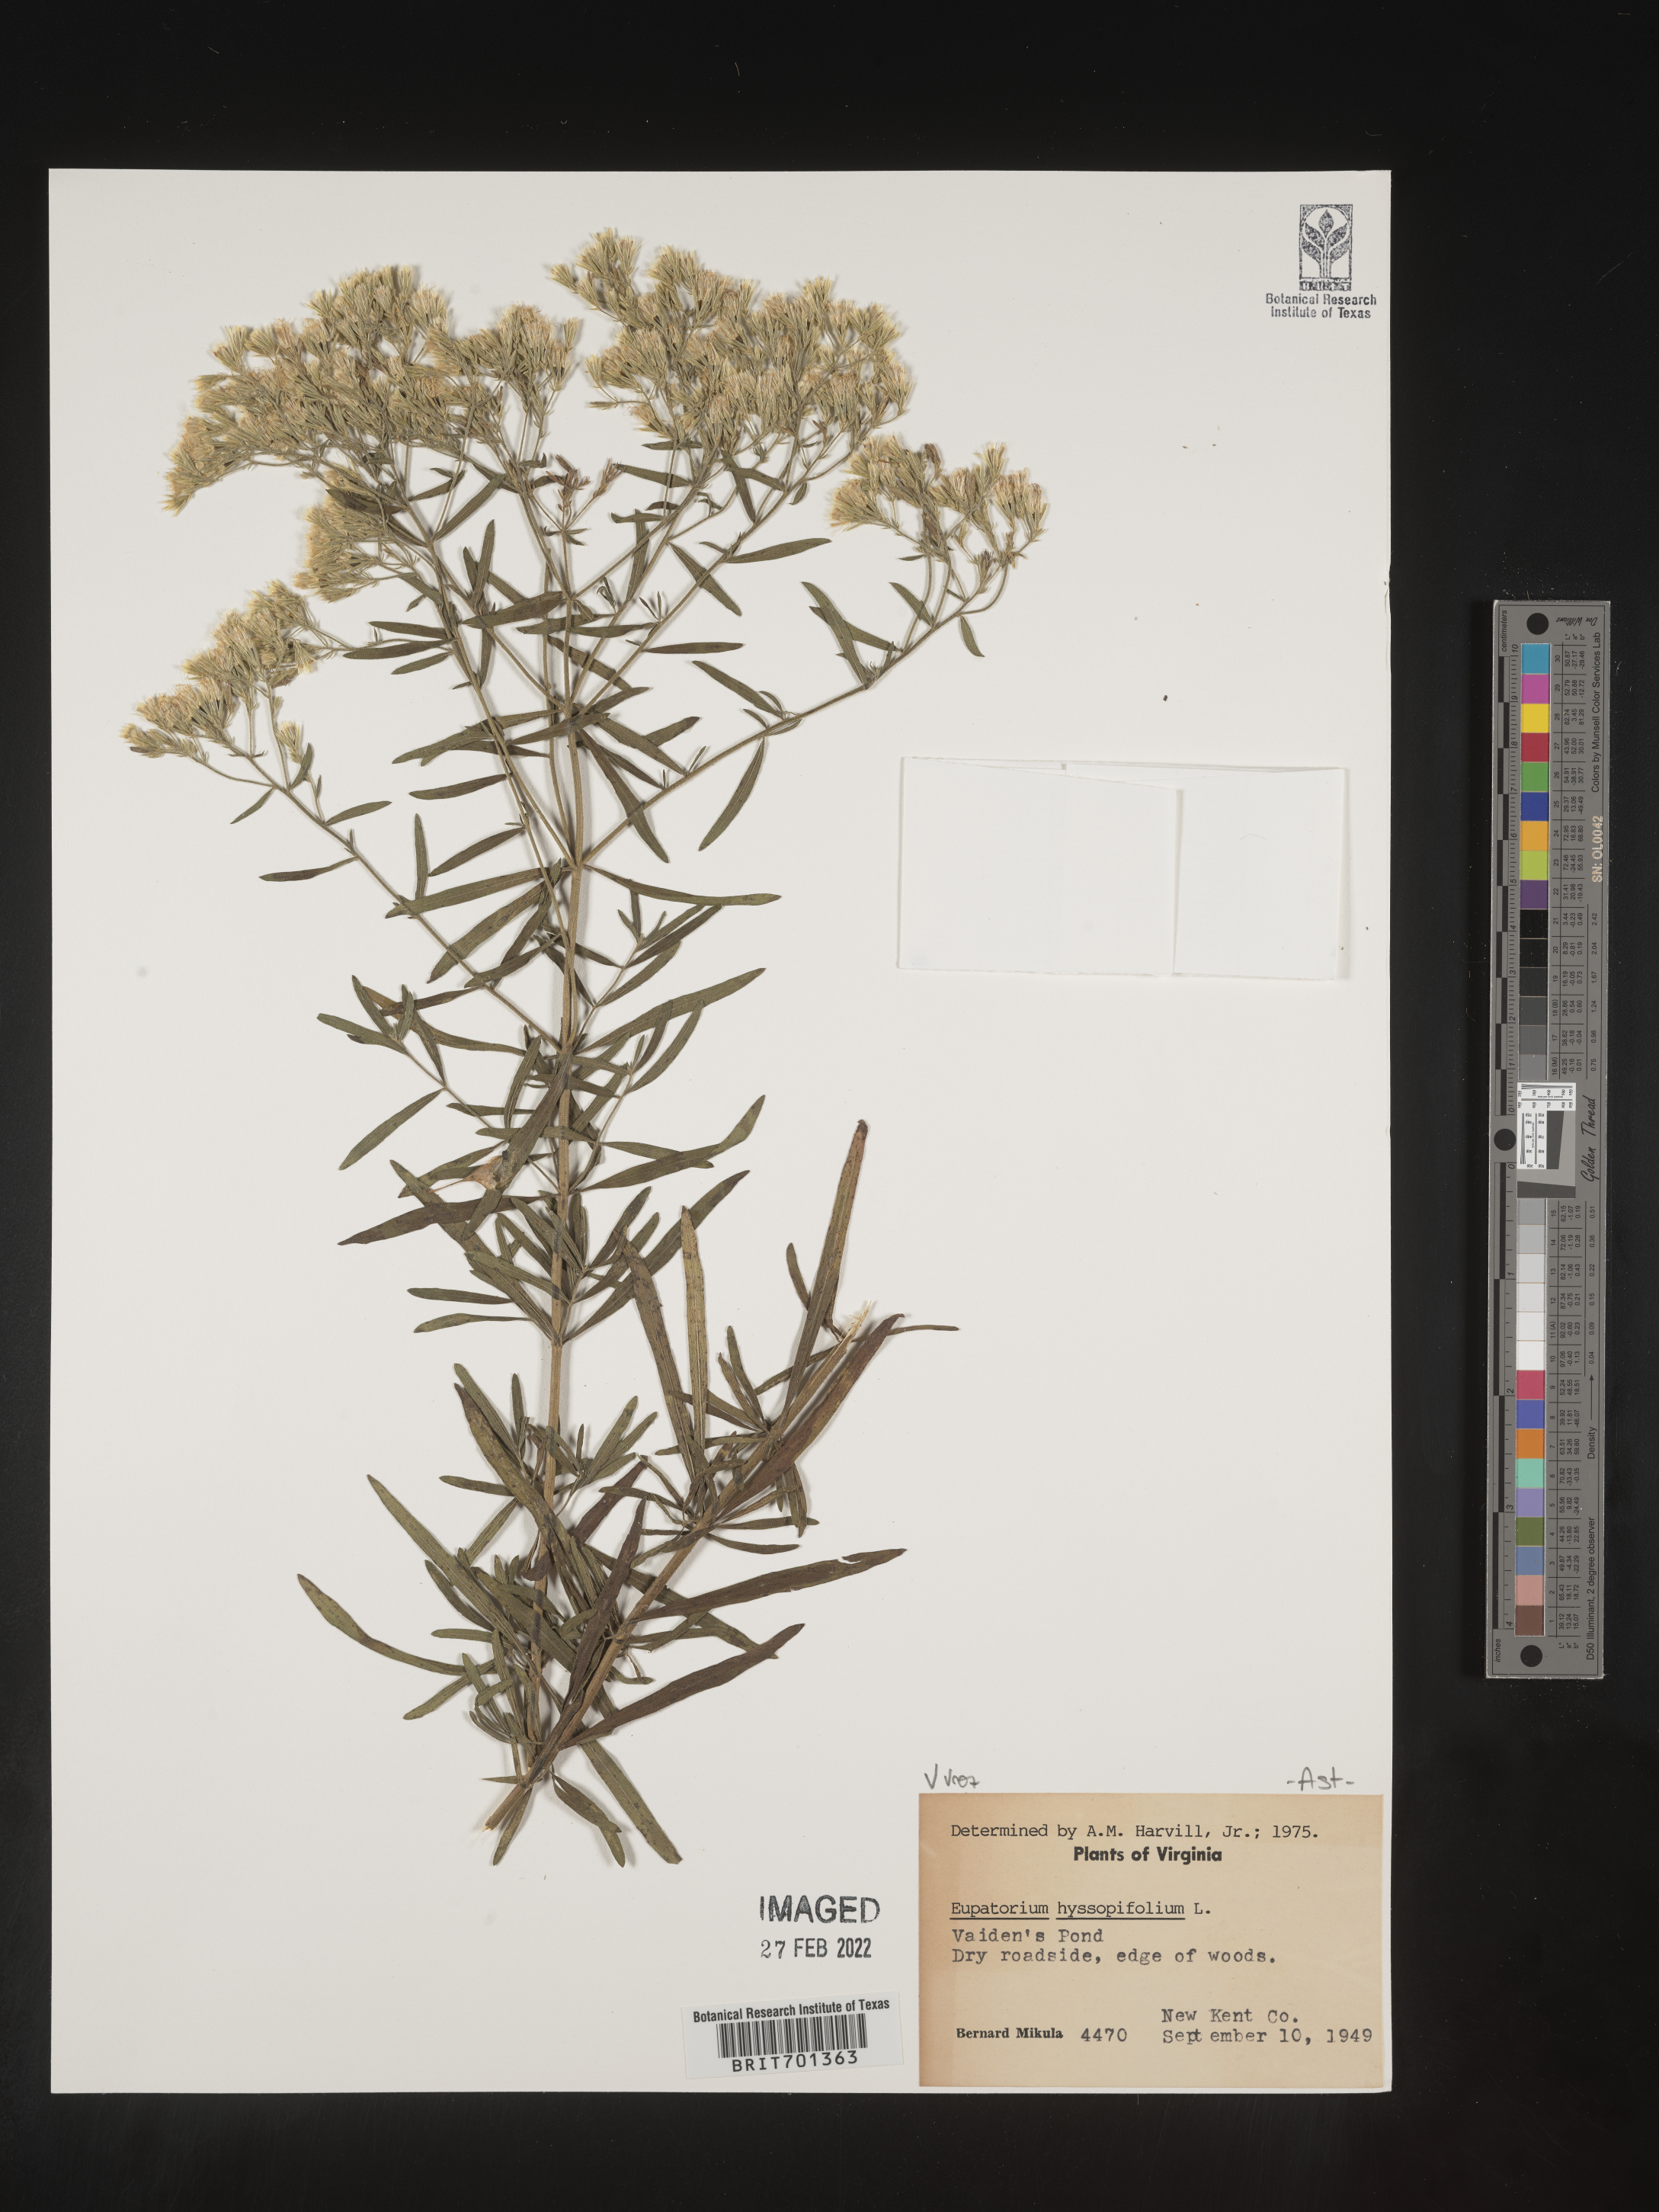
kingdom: Plantae
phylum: Tracheophyta
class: Magnoliopsida
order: Asterales
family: Asteraceae
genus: Eupatorium
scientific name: Eupatorium hyssopifolium
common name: Hyssop-leaf thoroughwort
